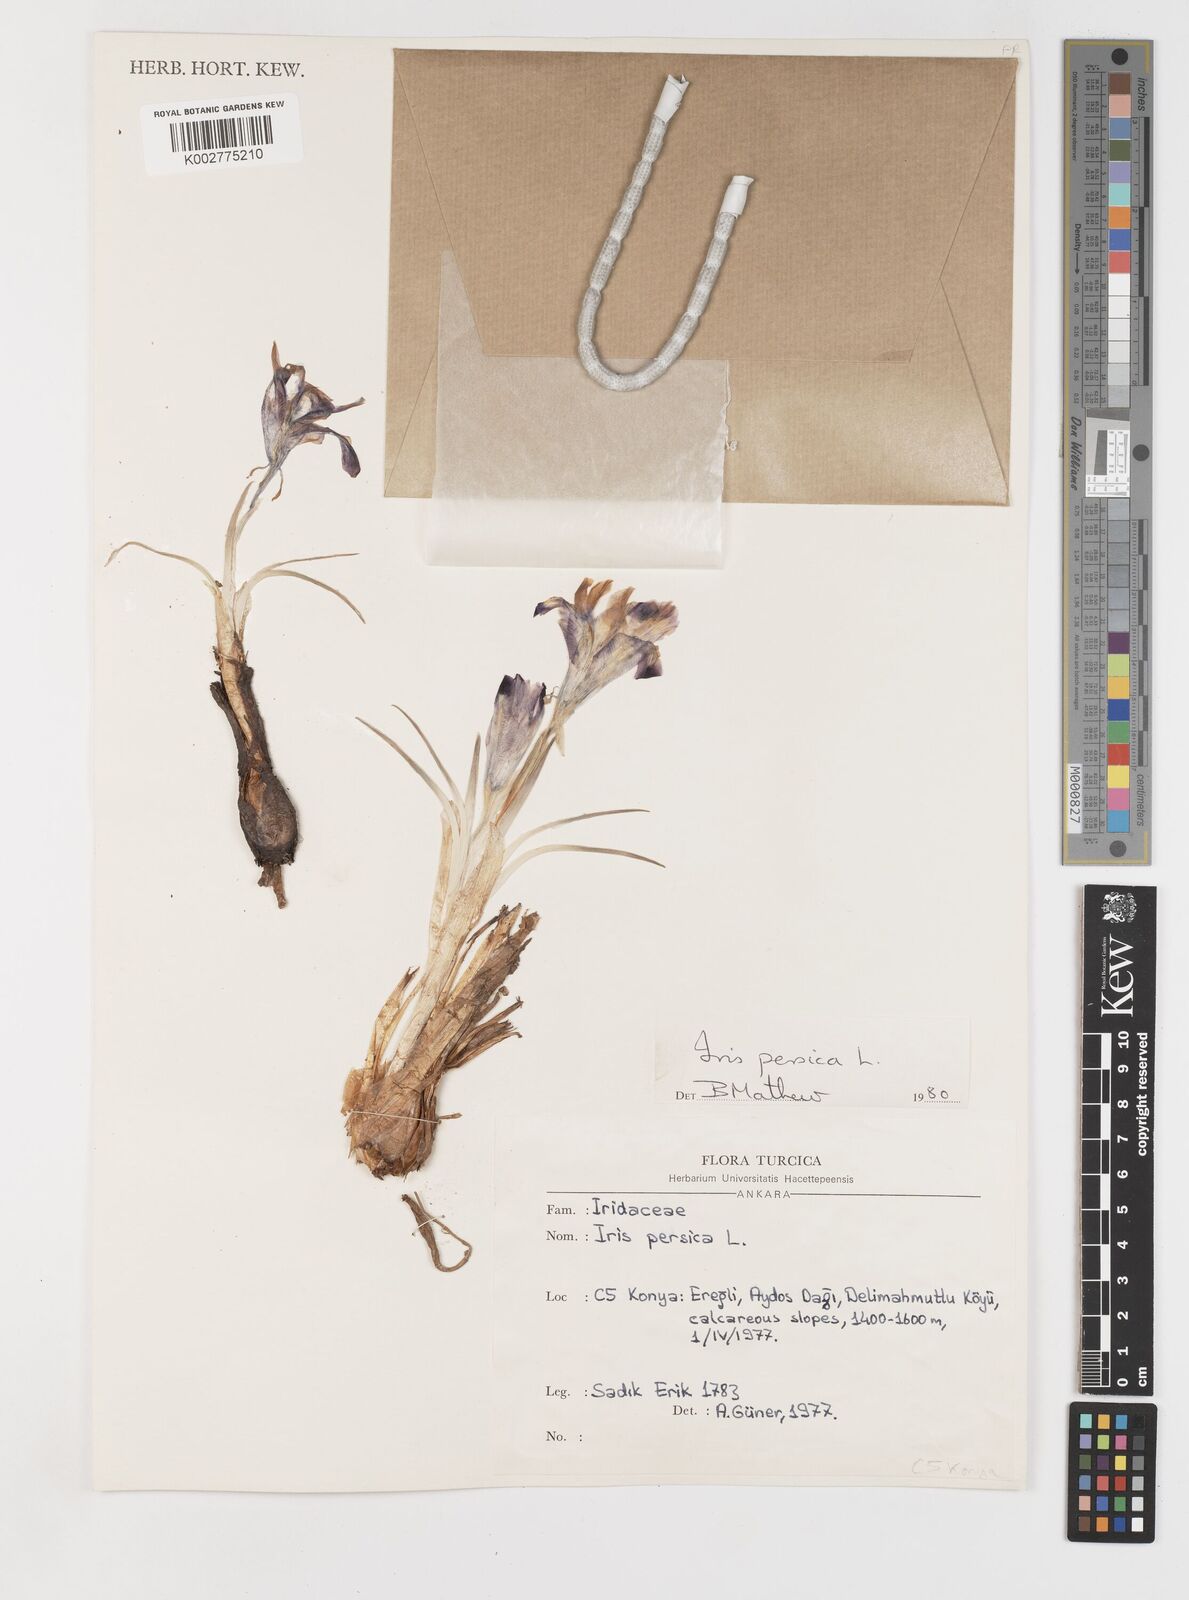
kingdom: Plantae
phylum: Tracheophyta
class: Liliopsida
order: Asparagales
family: Iridaceae
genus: Iris
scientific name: Iris persica
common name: Persian iris
